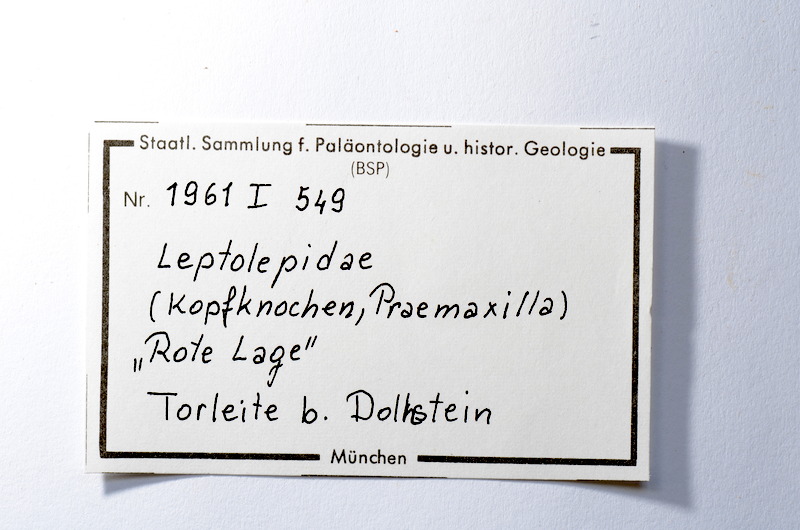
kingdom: Animalia
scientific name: Animalia
